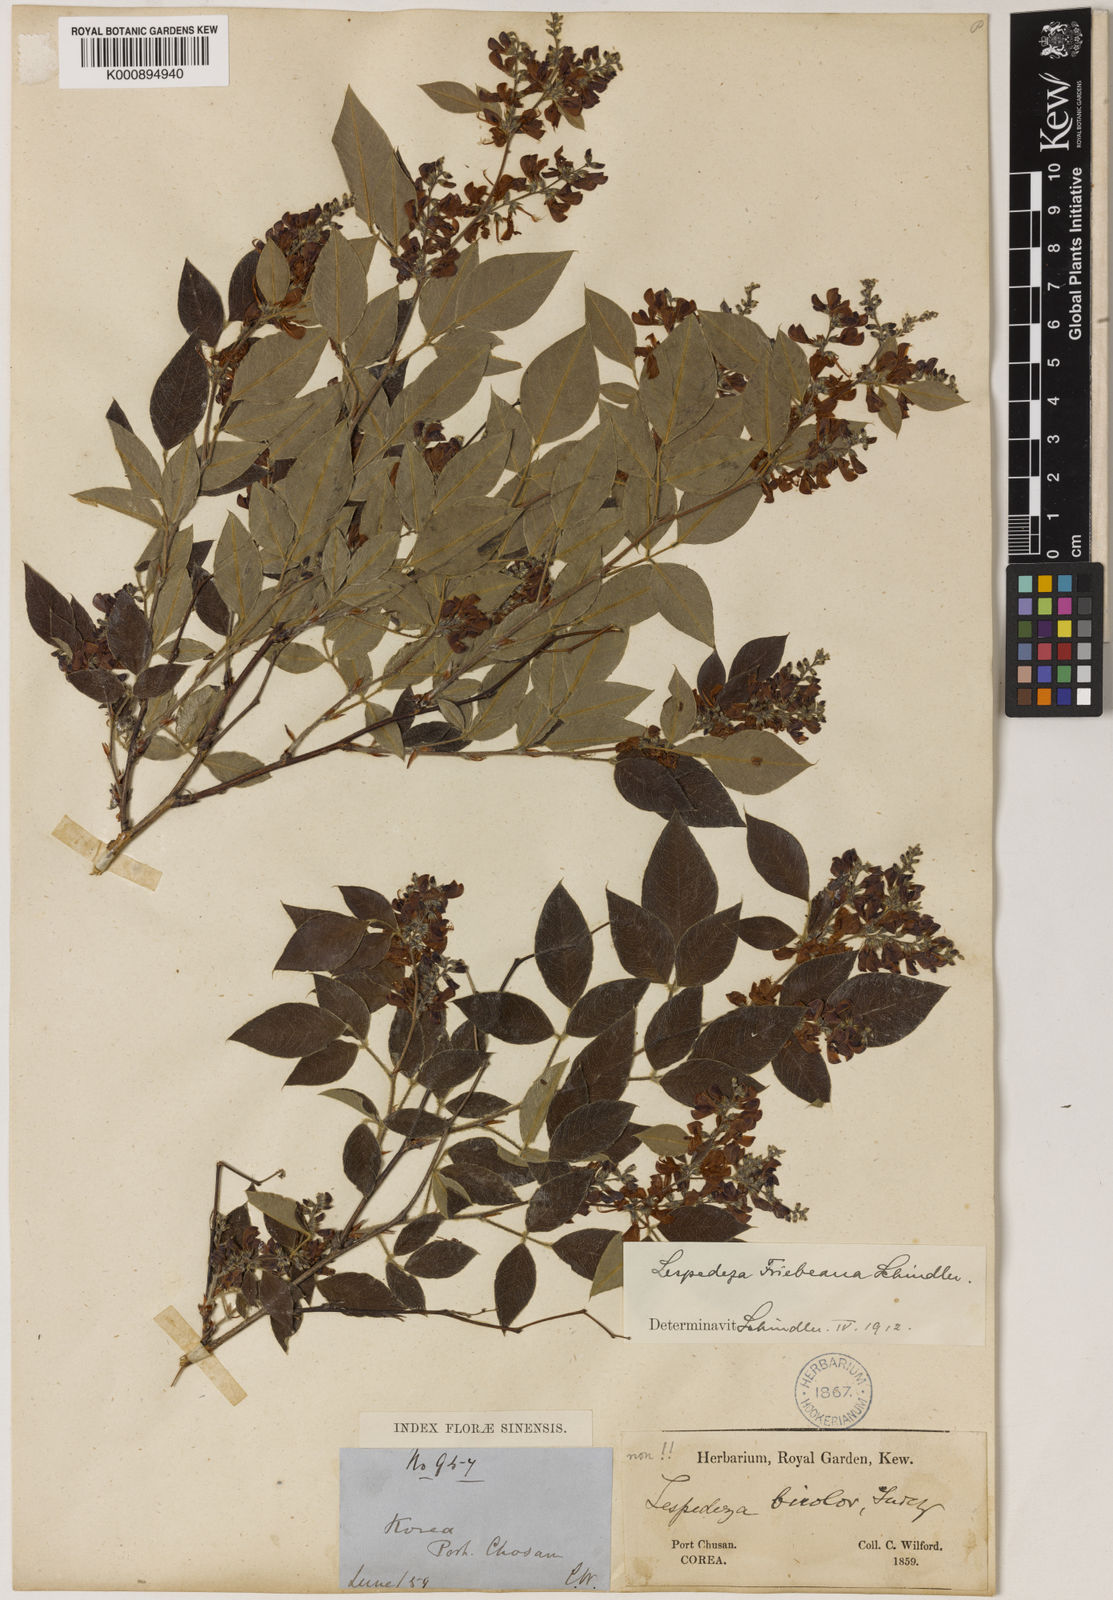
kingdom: Plantae
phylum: Tracheophyta
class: Magnoliopsida
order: Fabales
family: Fabaceae
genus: Lespedeza
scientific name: Lespedeza maximowiczii
